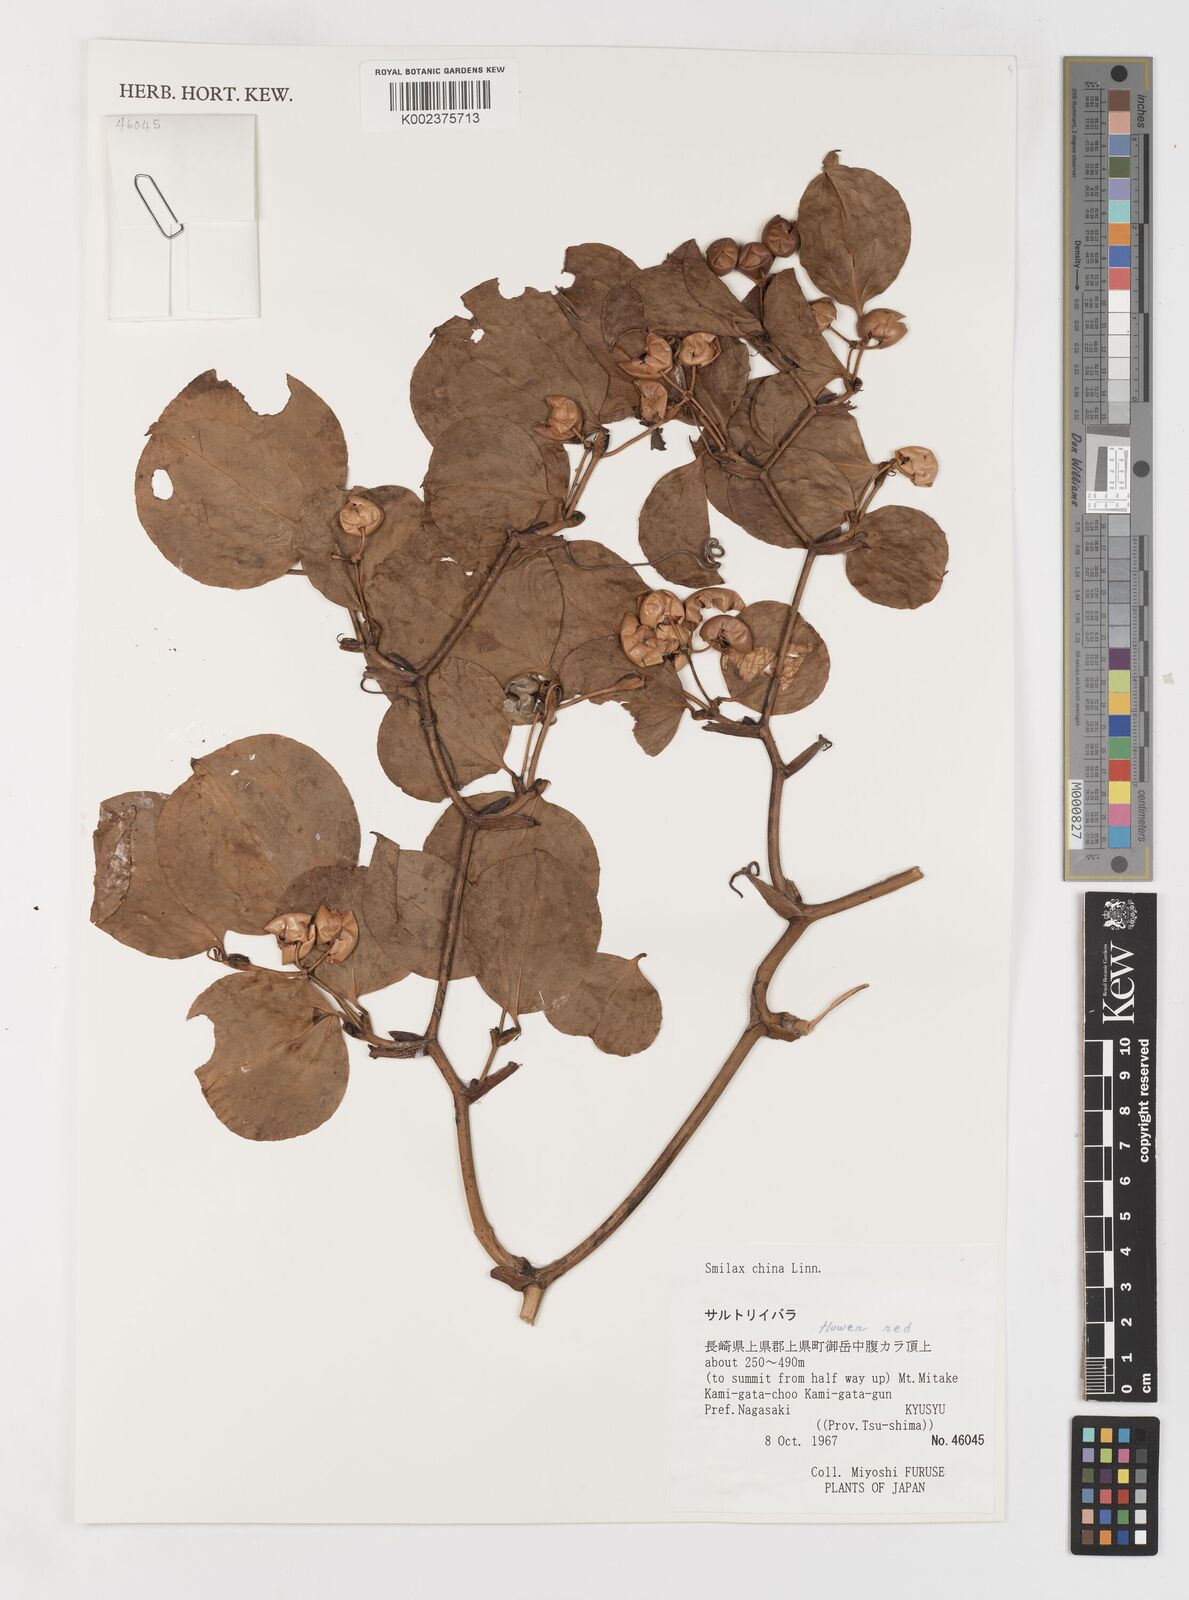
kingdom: Plantae
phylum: Tracheophyta
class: Liliopsida
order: Liliales
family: Smilacaceae
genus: Smilax
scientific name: Smilax china
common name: Chinaroot
